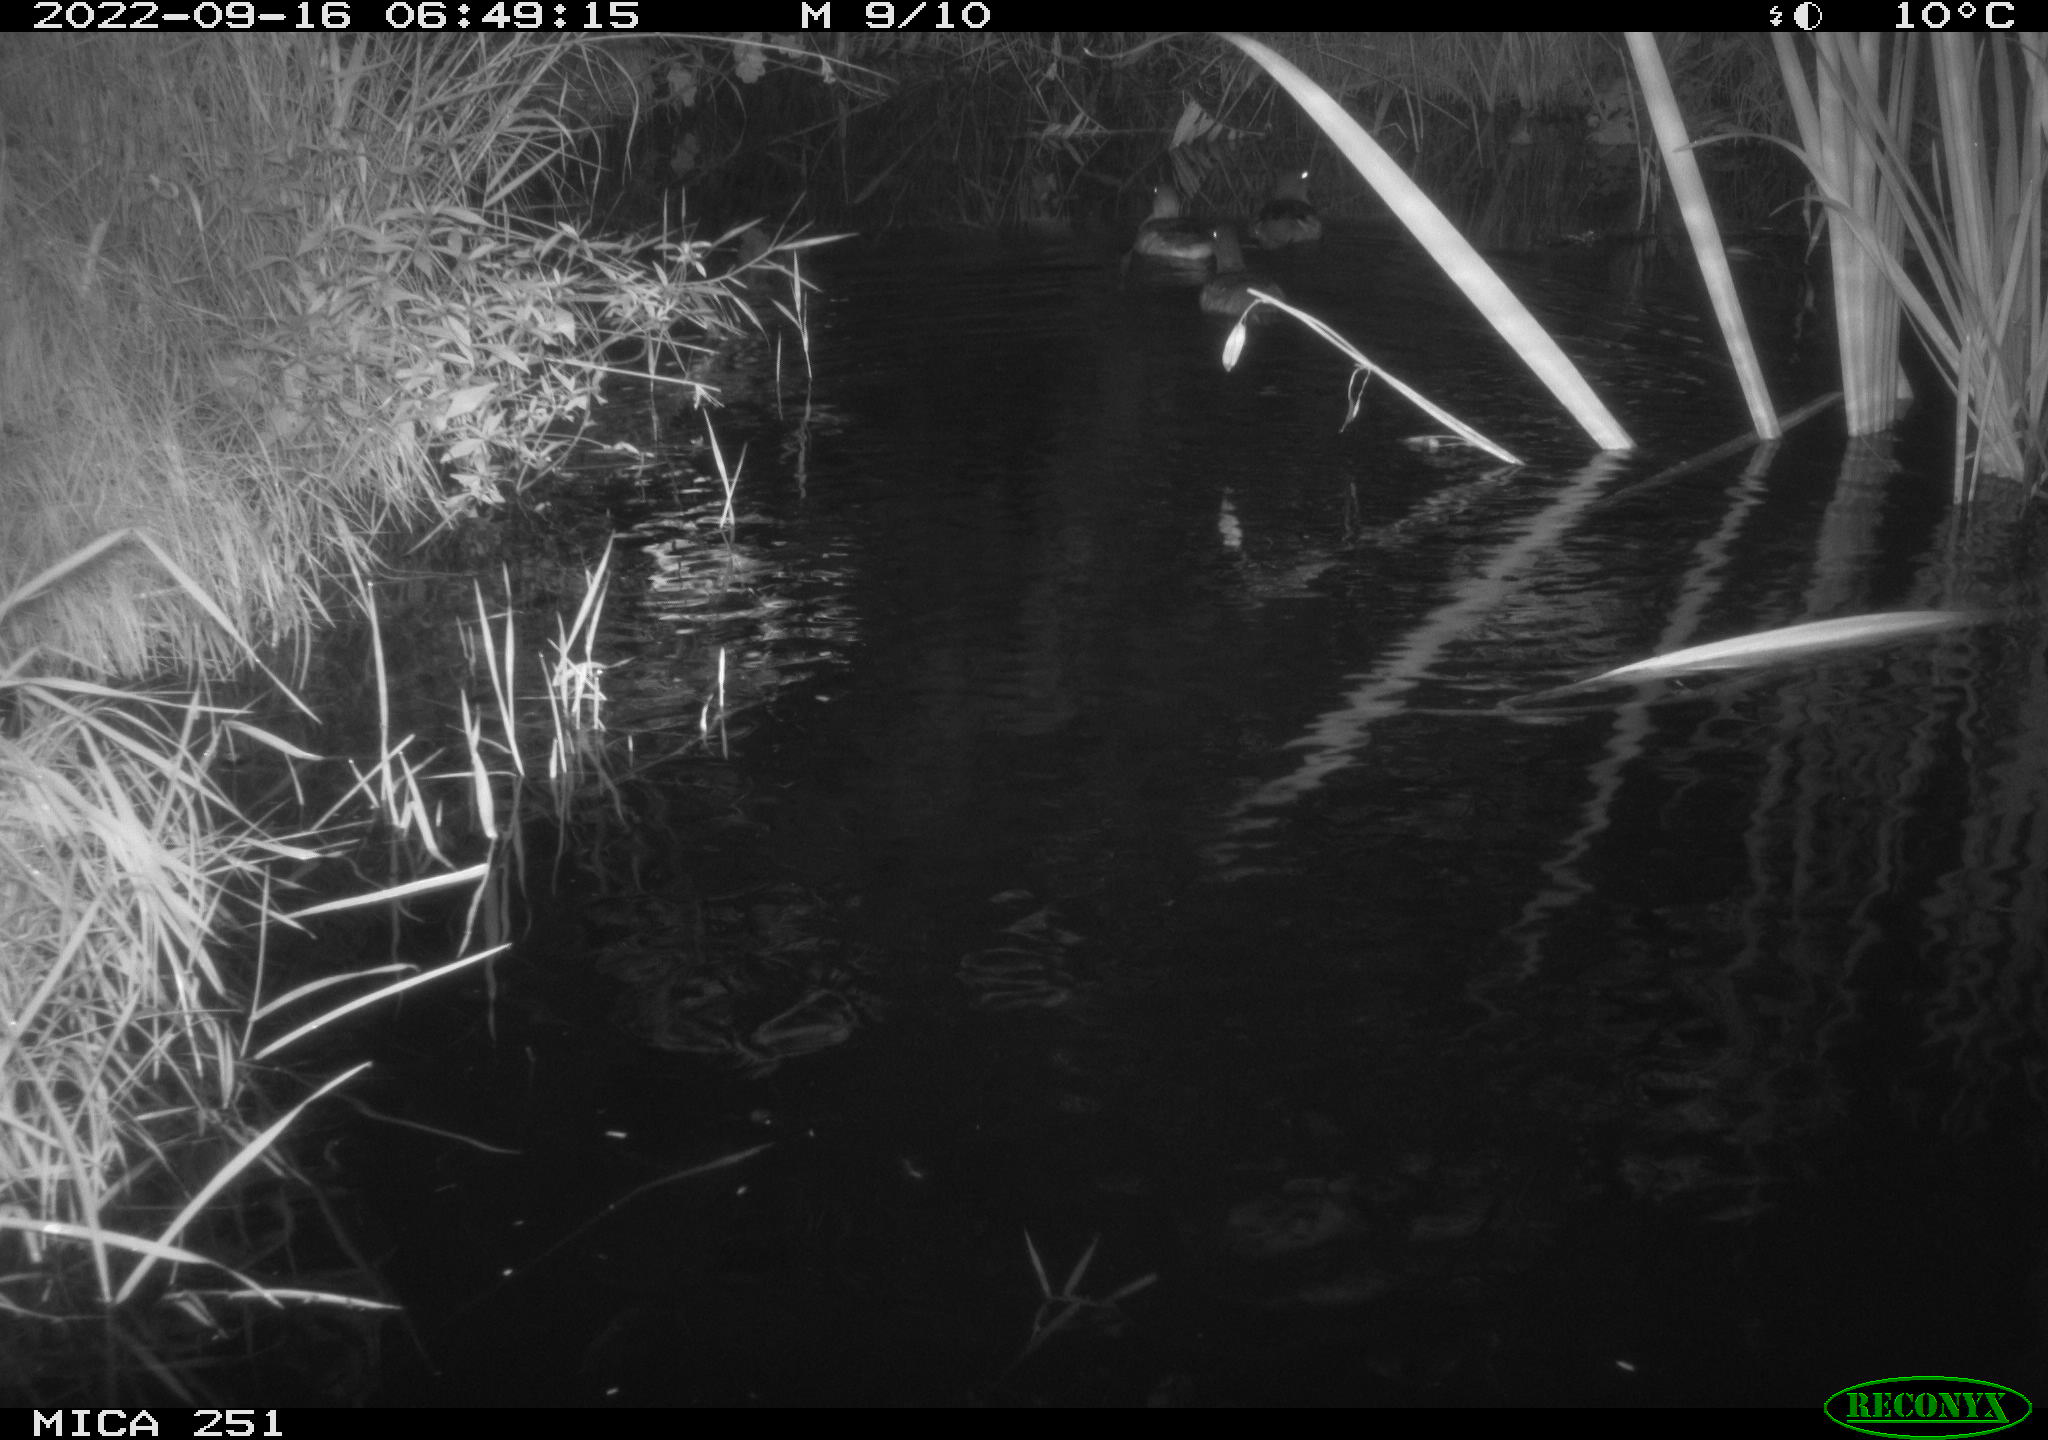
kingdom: Animalia
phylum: Chordata
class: Aves
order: Anseriformes
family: Anatidae
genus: Anas
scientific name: Anas
